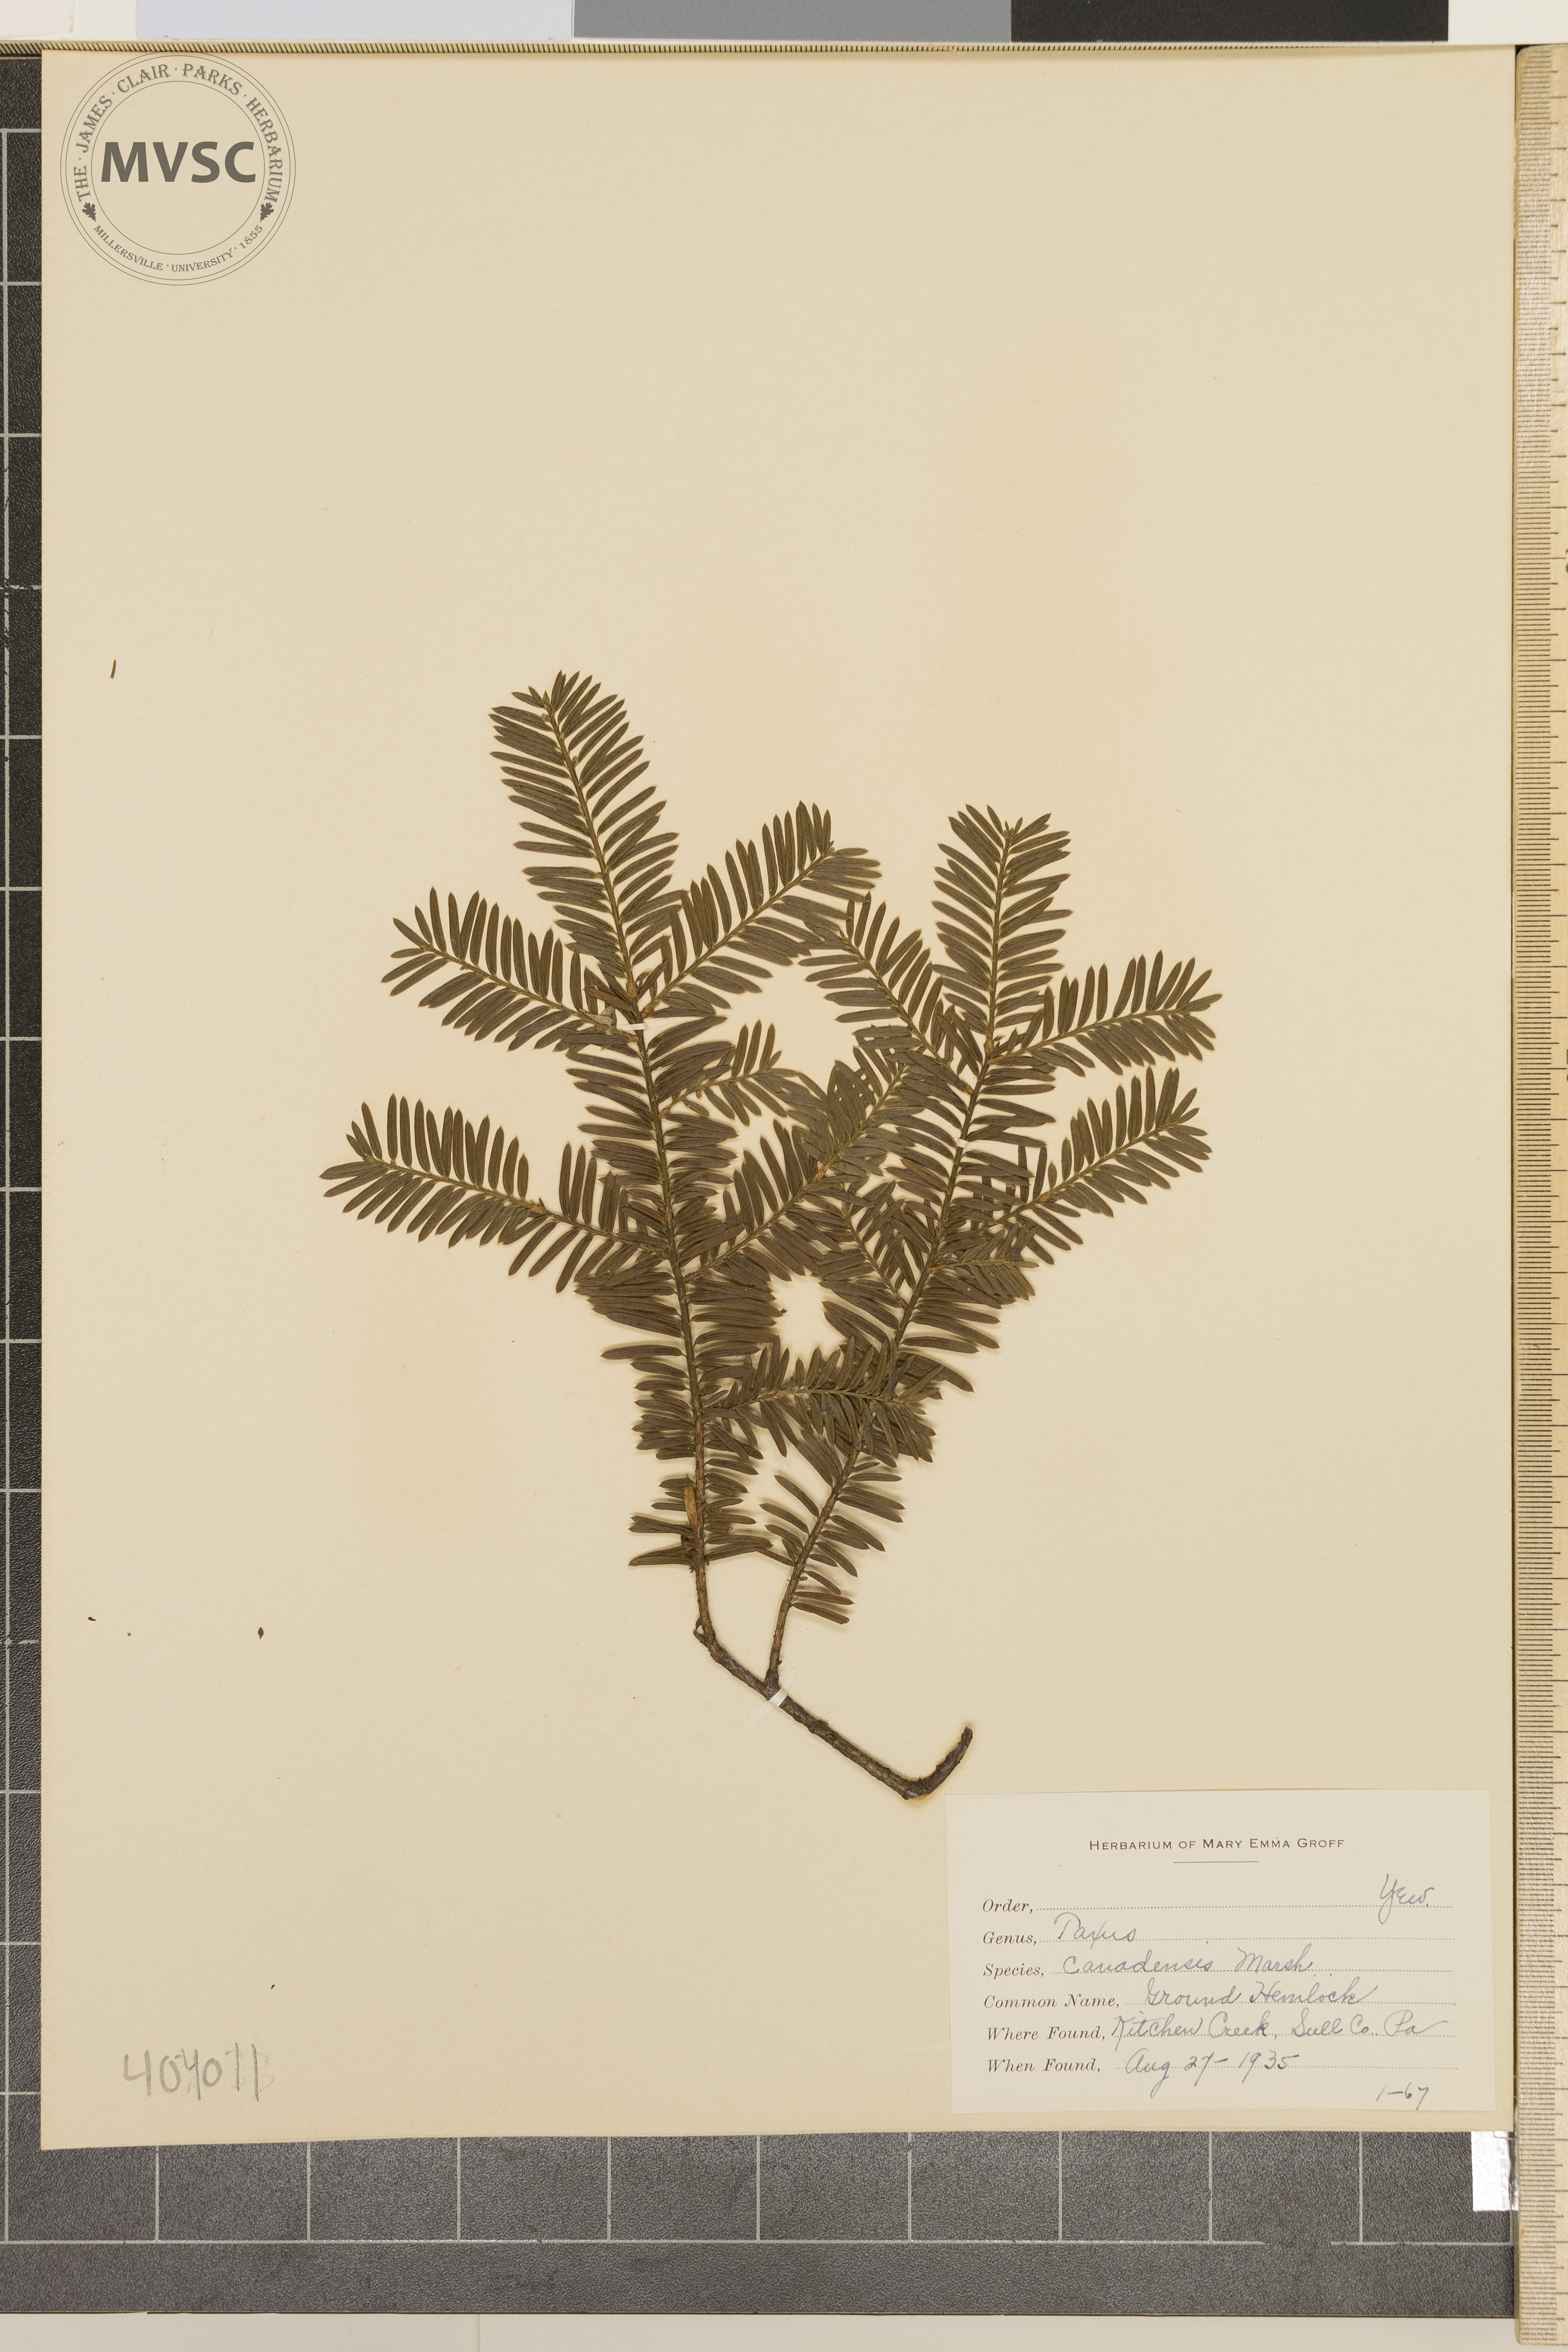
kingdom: Plantae
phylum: Tracheophyta
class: Pinopsida
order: Pinales
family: Taxaceae
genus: Taxus
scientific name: Taxus canadensis
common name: Canadian Yew
